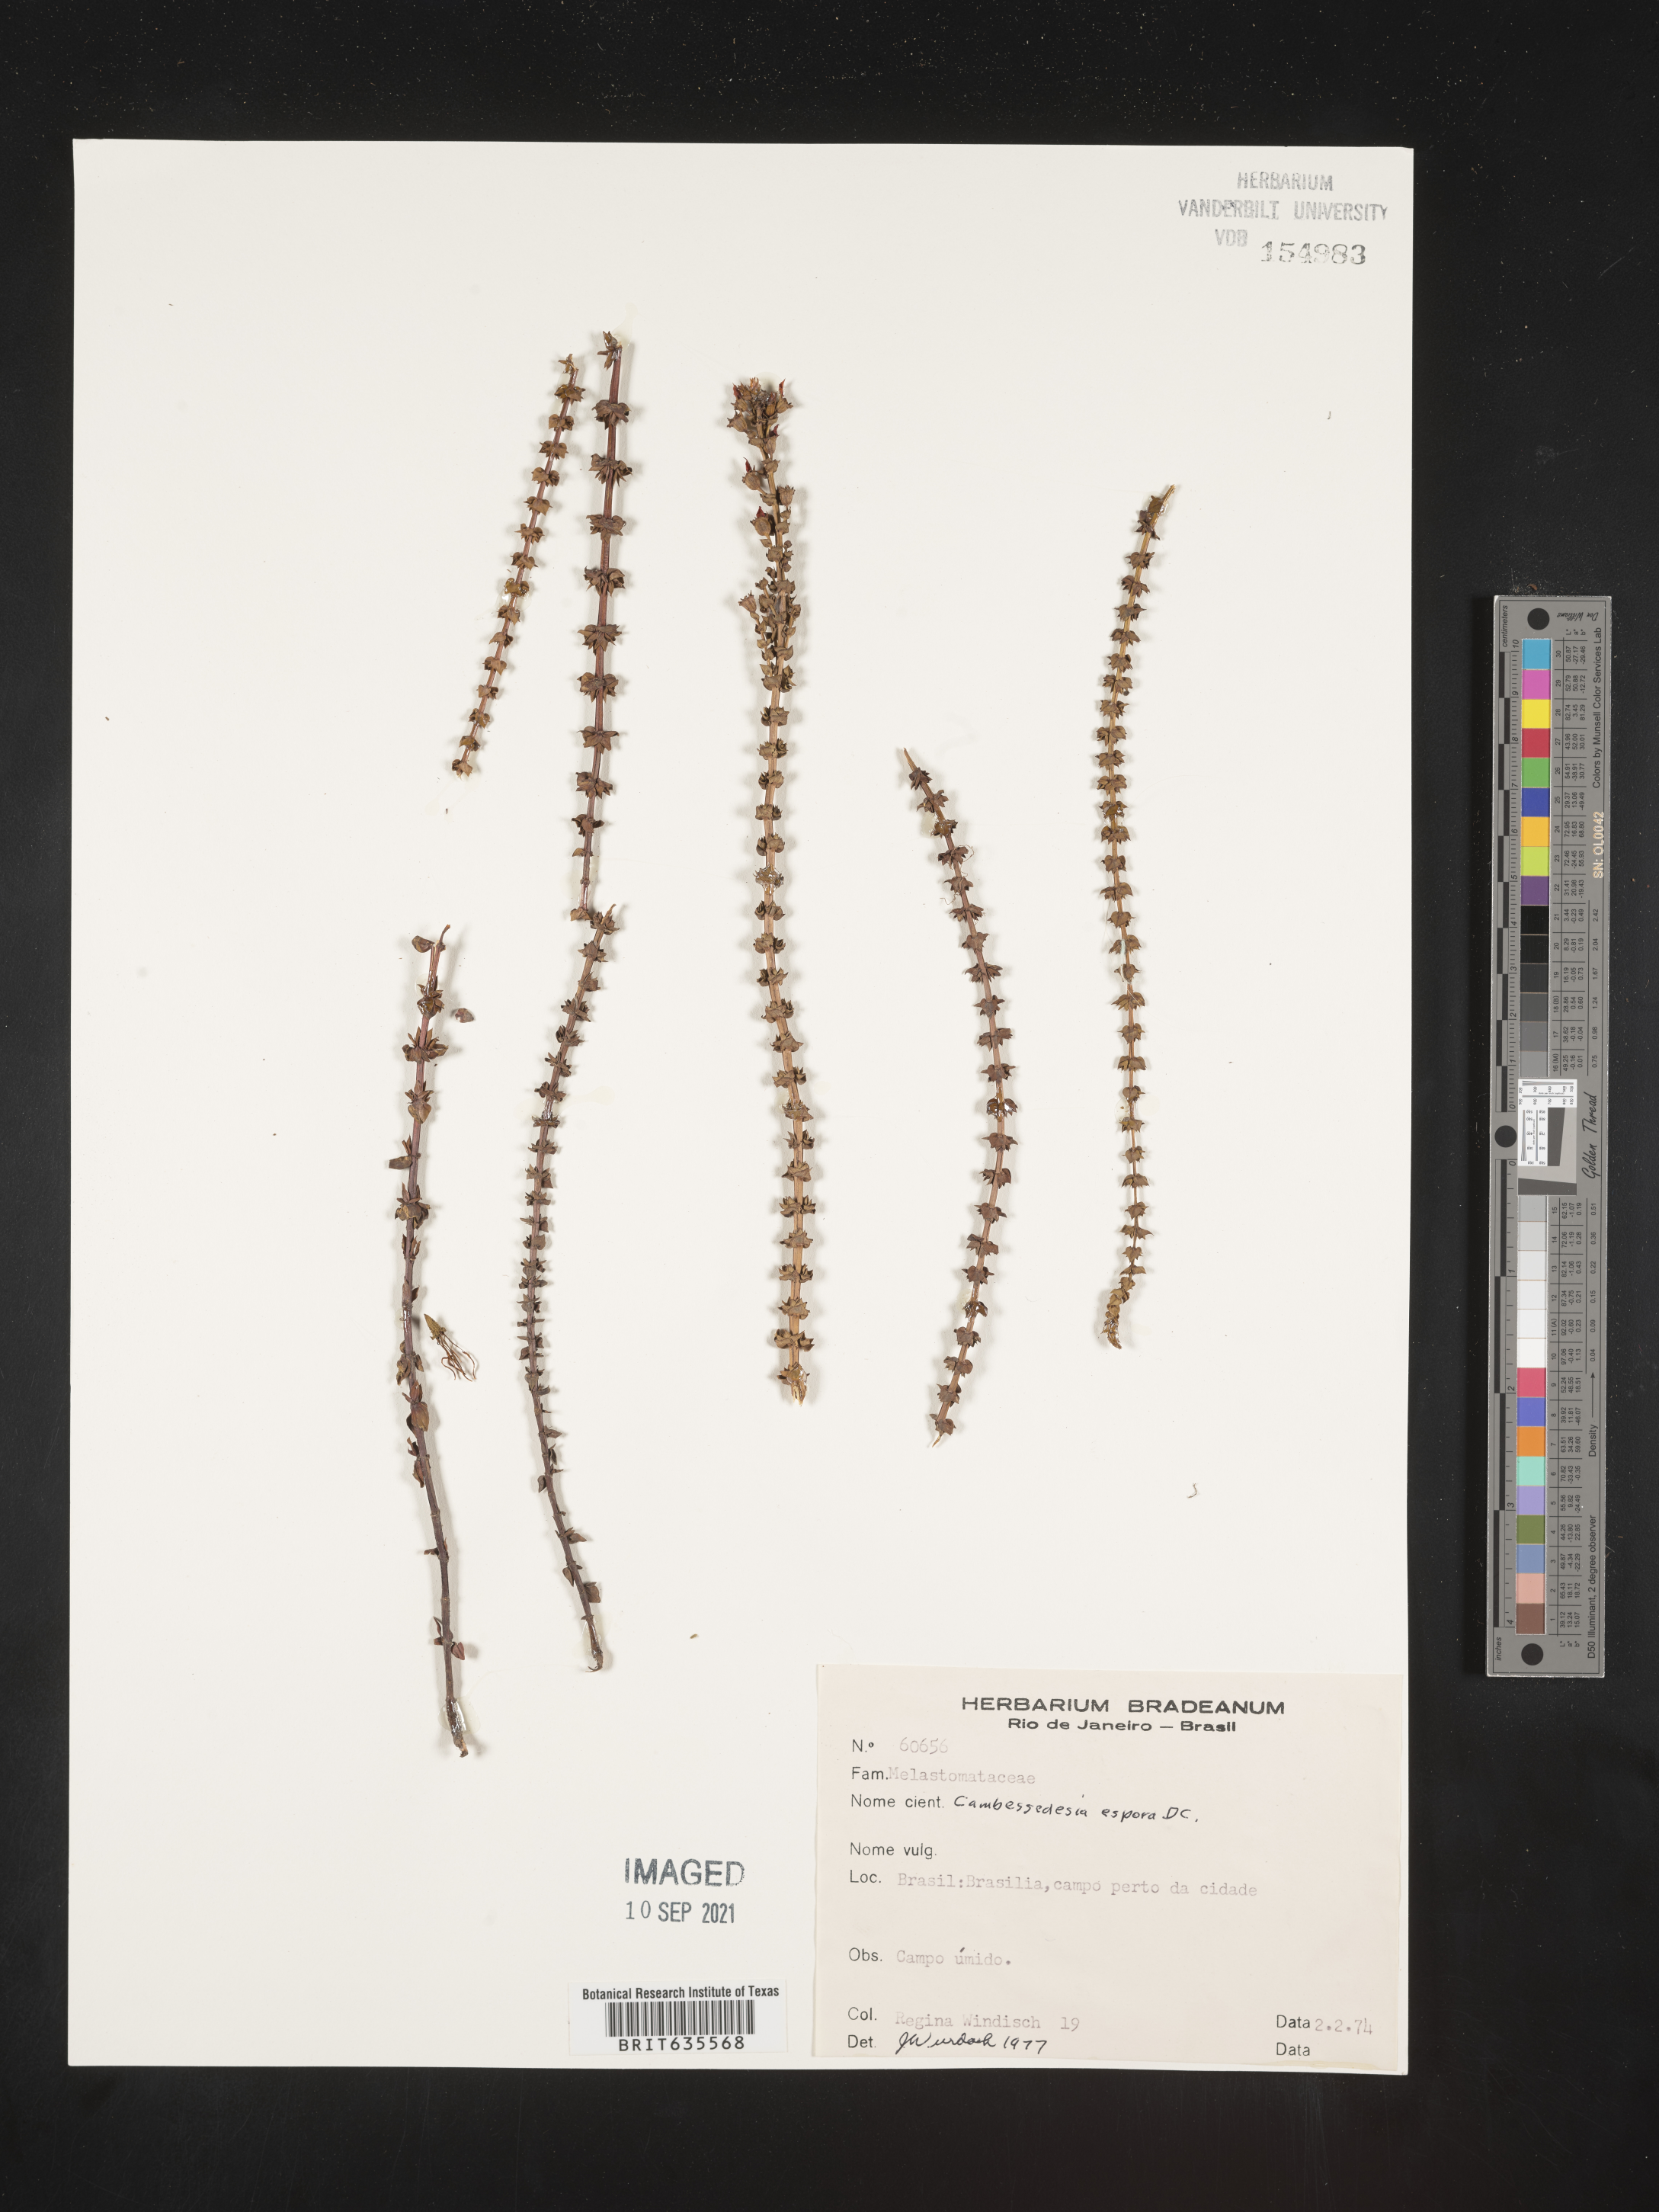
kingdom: Plantae
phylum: Tracheophyta
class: Magnoliopsida
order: Myrtales
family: Melastomataceae
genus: Cambessedesia
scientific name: Cambessedesia
